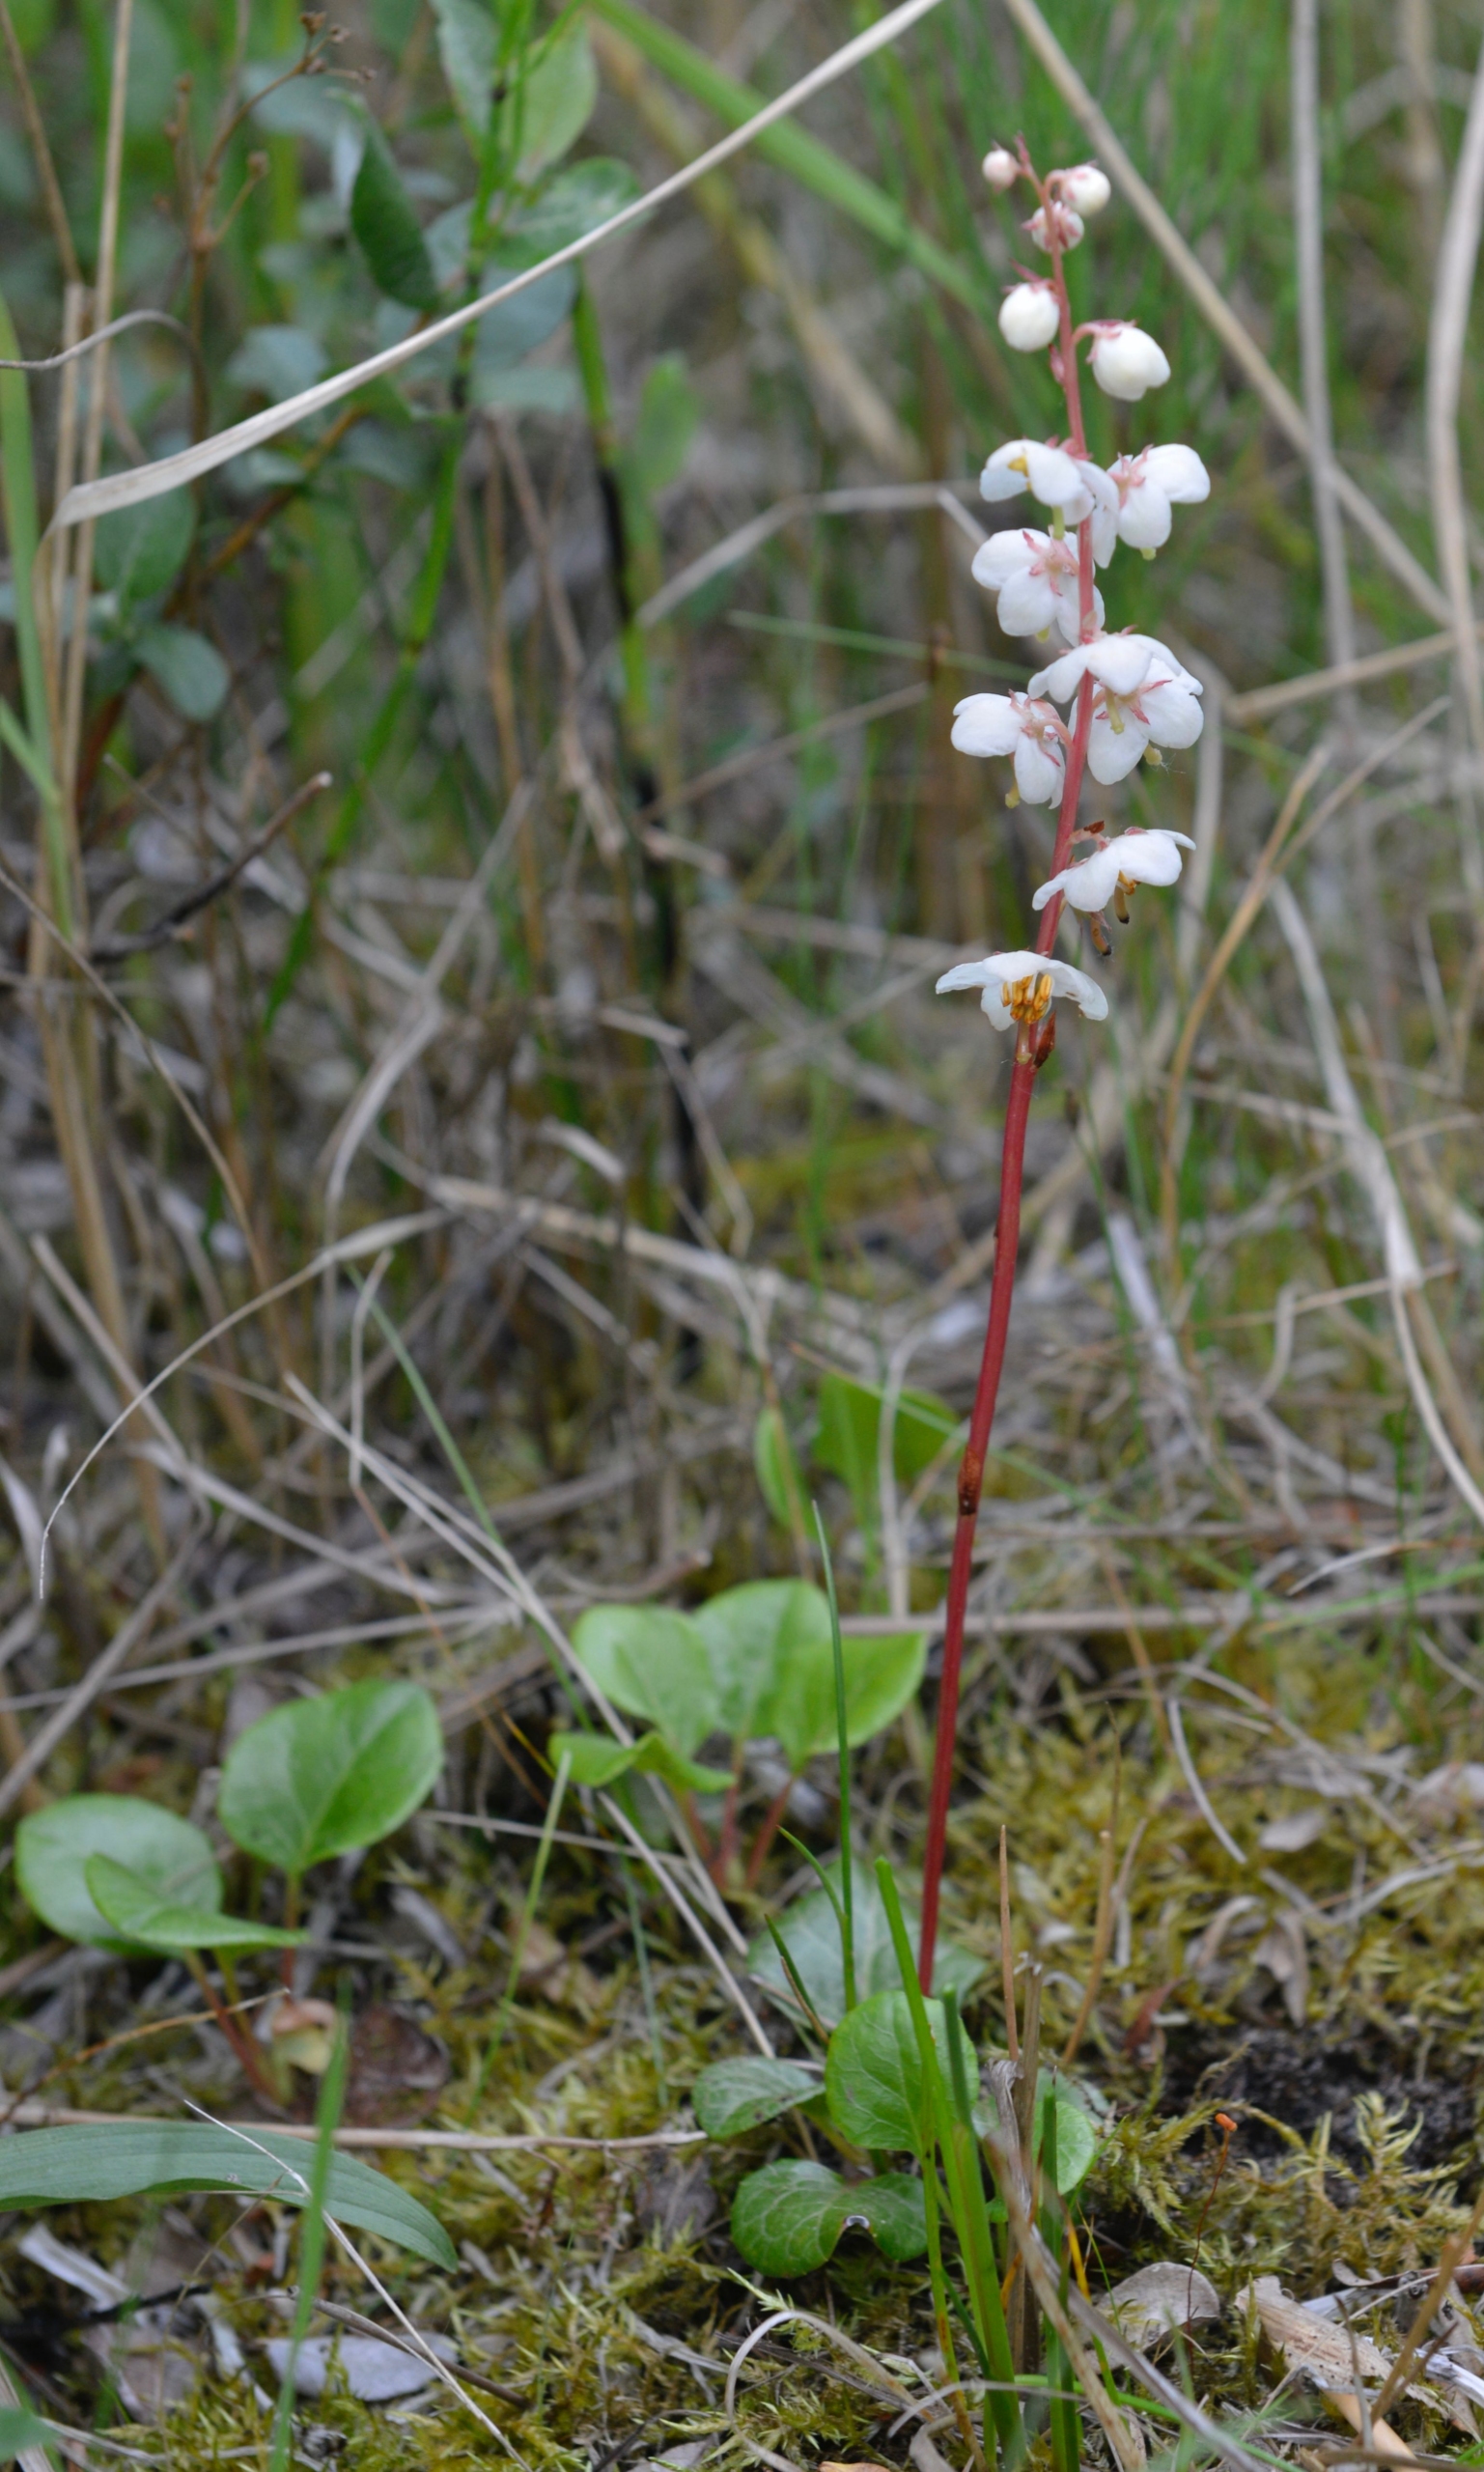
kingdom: Plantae
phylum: Tracheophyta
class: Magnoliopsida
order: Ericales
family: Ericaceae
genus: Pyrola
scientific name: Pyrola rotundifolia
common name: Klit-vintergrøn
